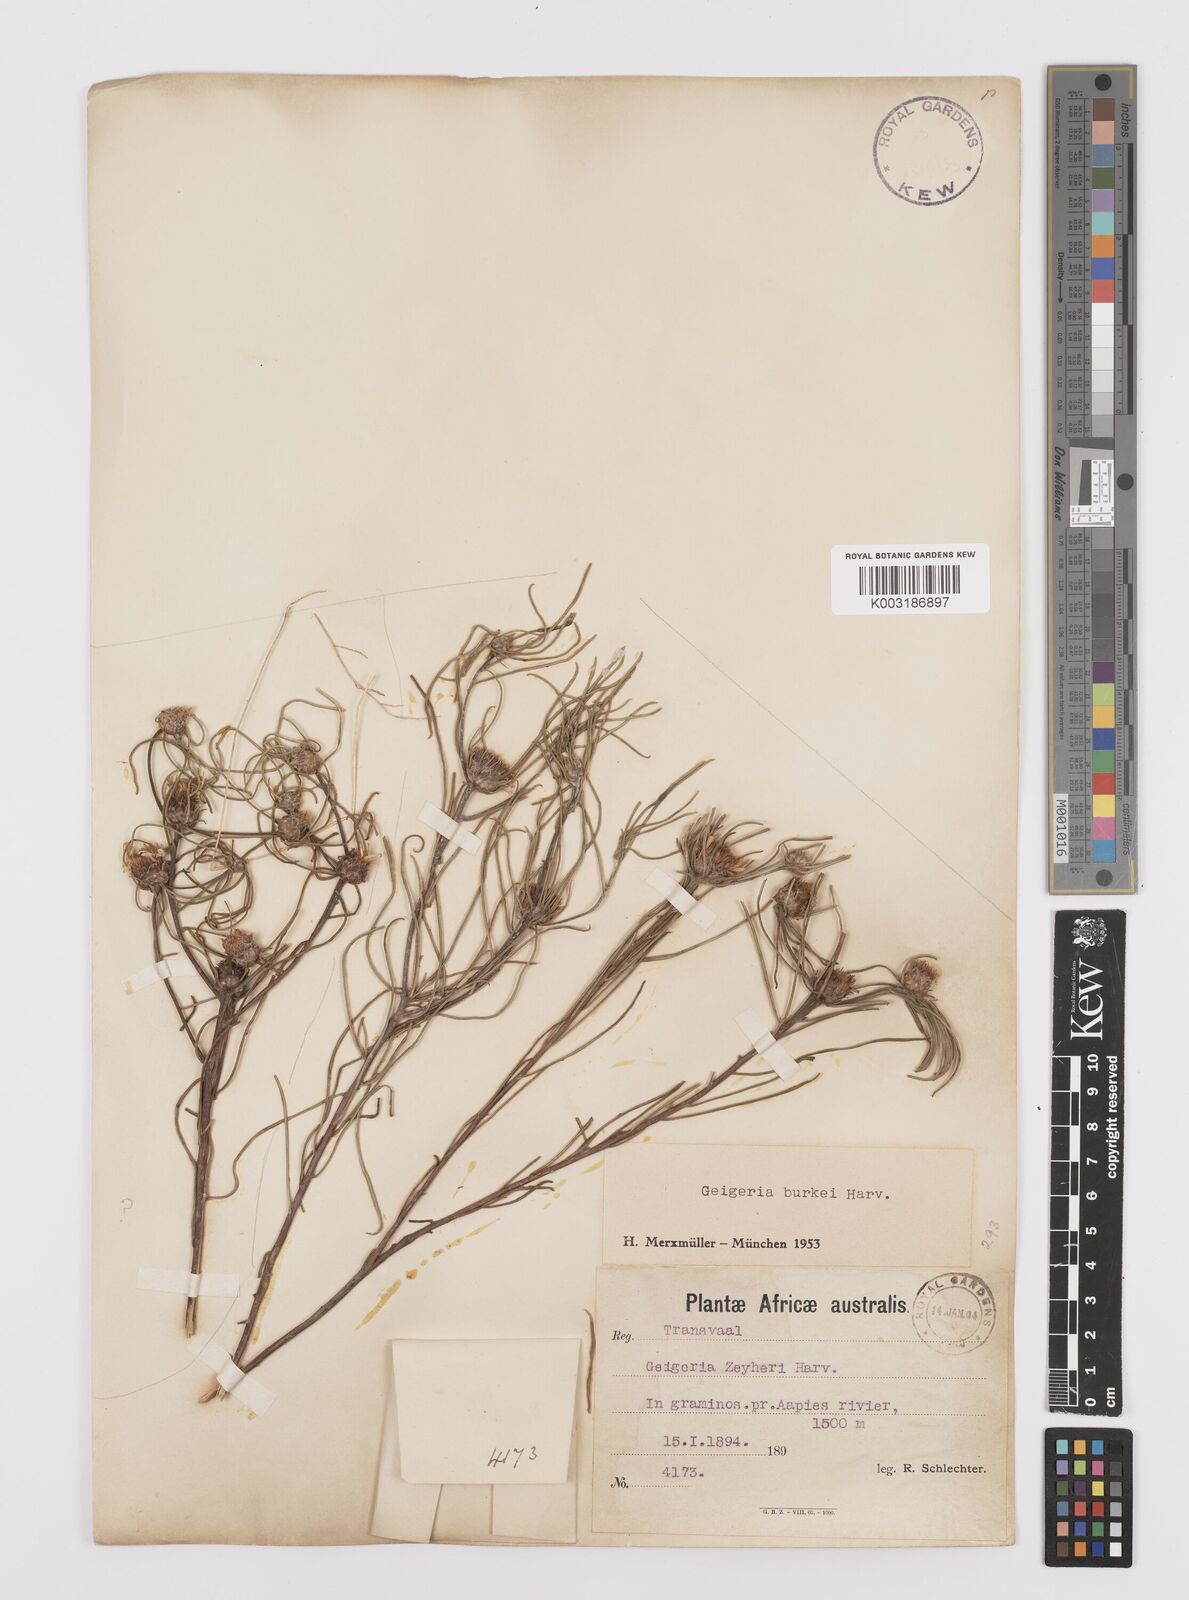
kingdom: Plantae
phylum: Tracheophyta
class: Magnoliopsida
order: Asterales
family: Asteraceae
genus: Geigeria
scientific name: Geigeria burkei
